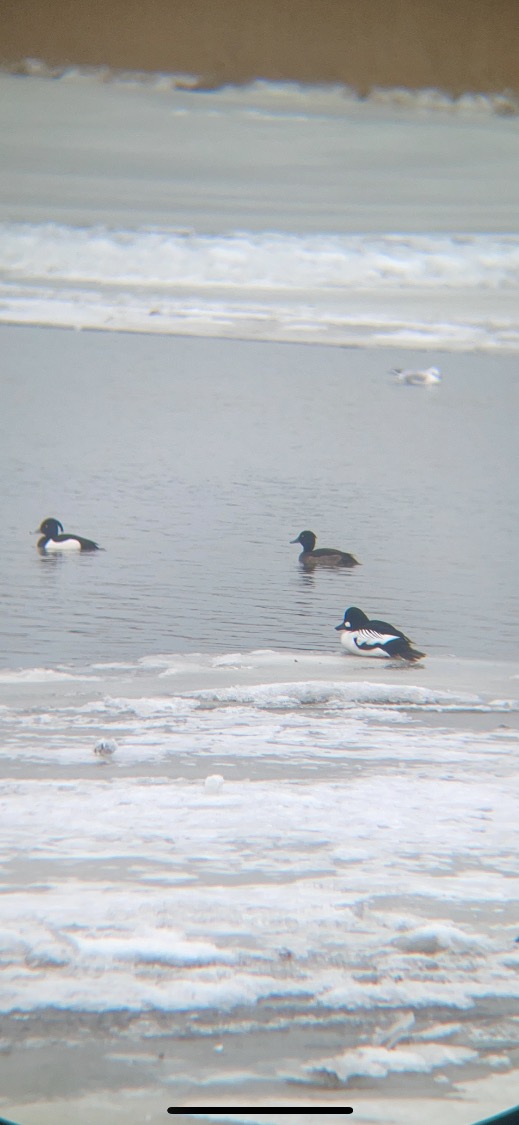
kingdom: Animalia
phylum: Chordata
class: Aves
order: Anseriformes
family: Anatidae
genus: Bucephala
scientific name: Bucephala clangula
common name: Hvinand
